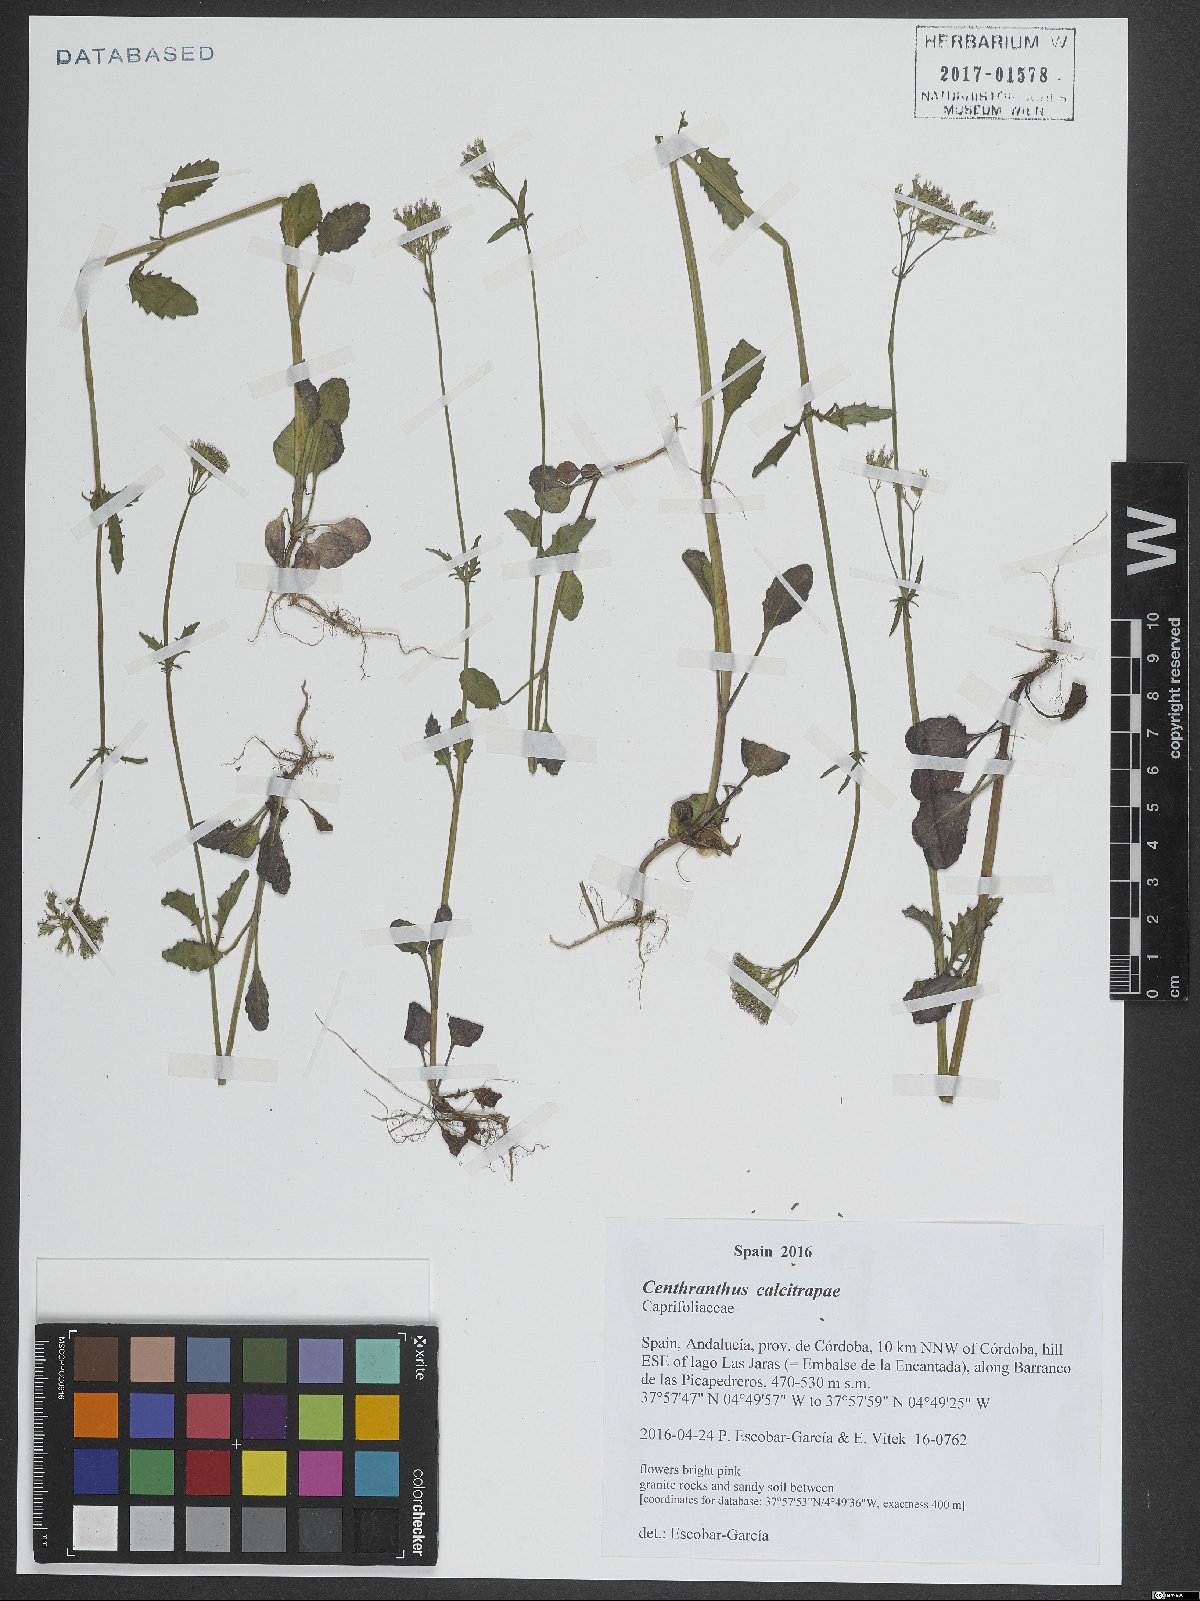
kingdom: Plantae
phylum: Tracheophyta
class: Magnoliopsida
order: Dipsacales
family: Caprifoliaceae
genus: Centranthus
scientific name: Centranthus calcitrapae
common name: Annual valerian
